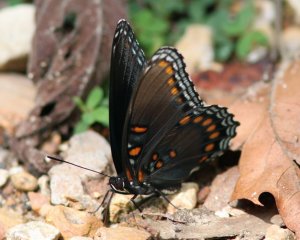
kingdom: Animalia
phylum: Arthropoda
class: Insecta
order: Lepidoptera
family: Nymphalidae
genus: Limenitis
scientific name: Limenitis astyanax
